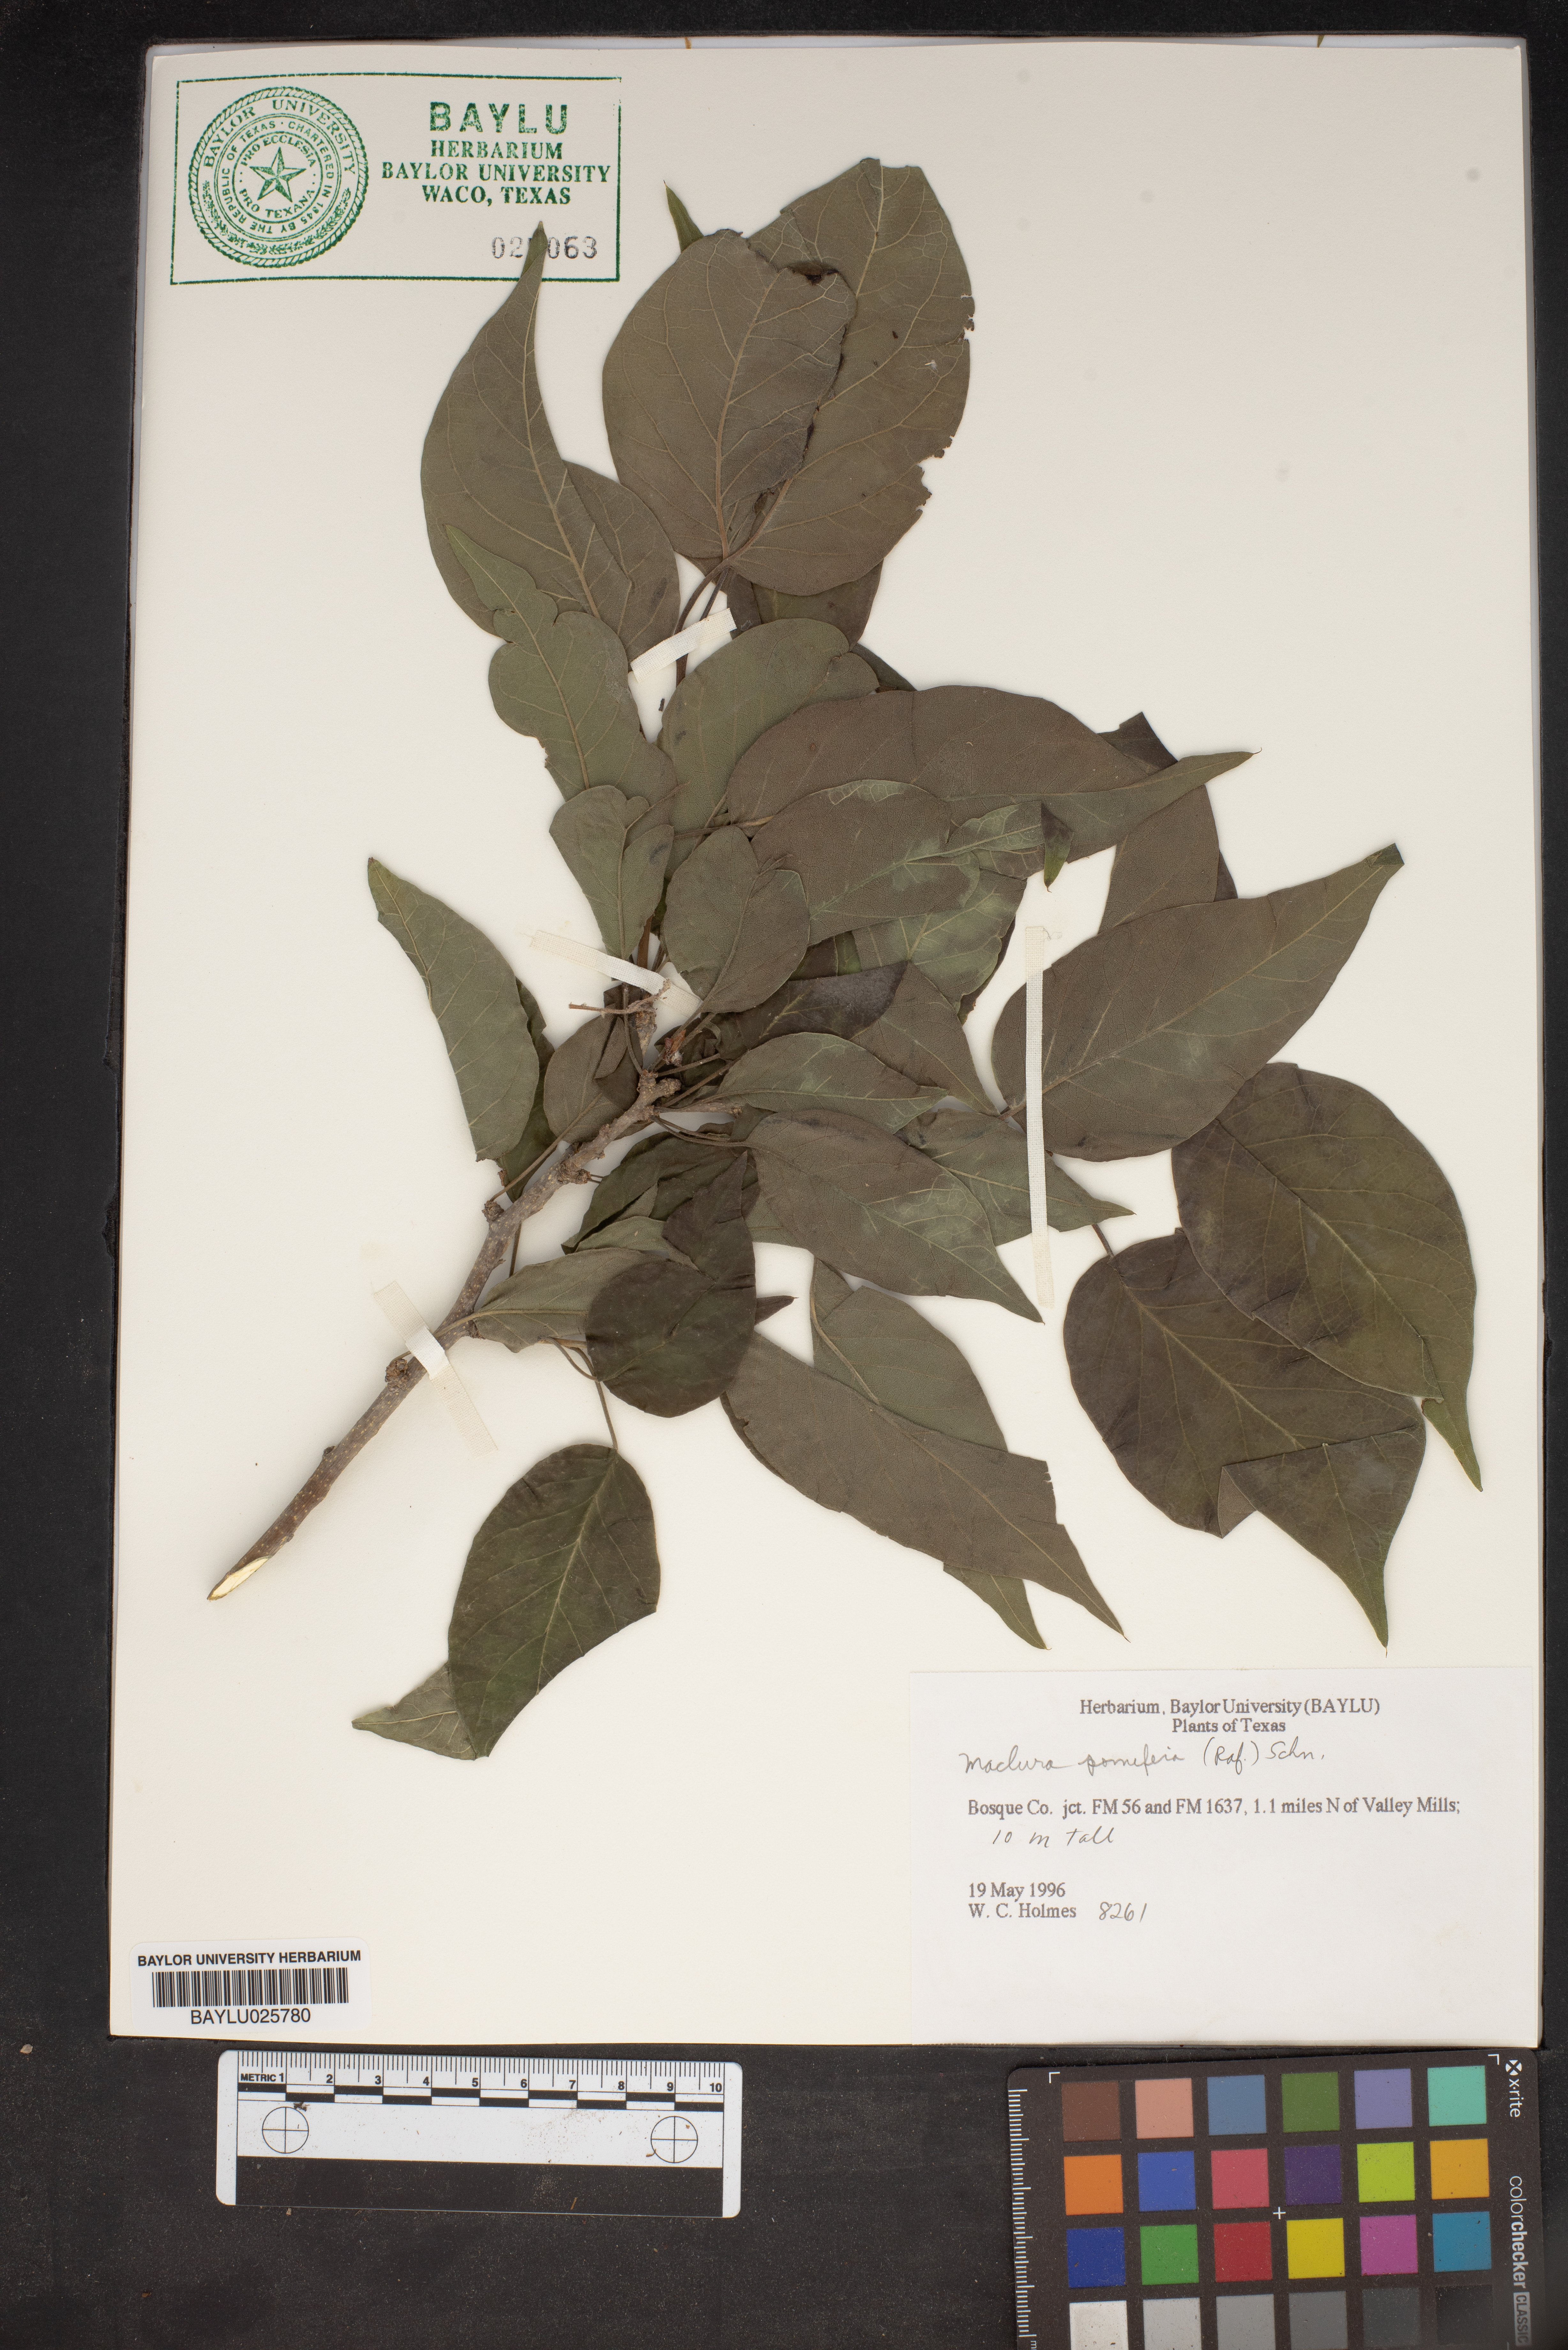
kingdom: Plantae
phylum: Tracheophyta
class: Magnoliopsida
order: Rosales
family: Moraceae
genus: Maclura
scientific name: Maclura pomifera
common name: Osage-orange
